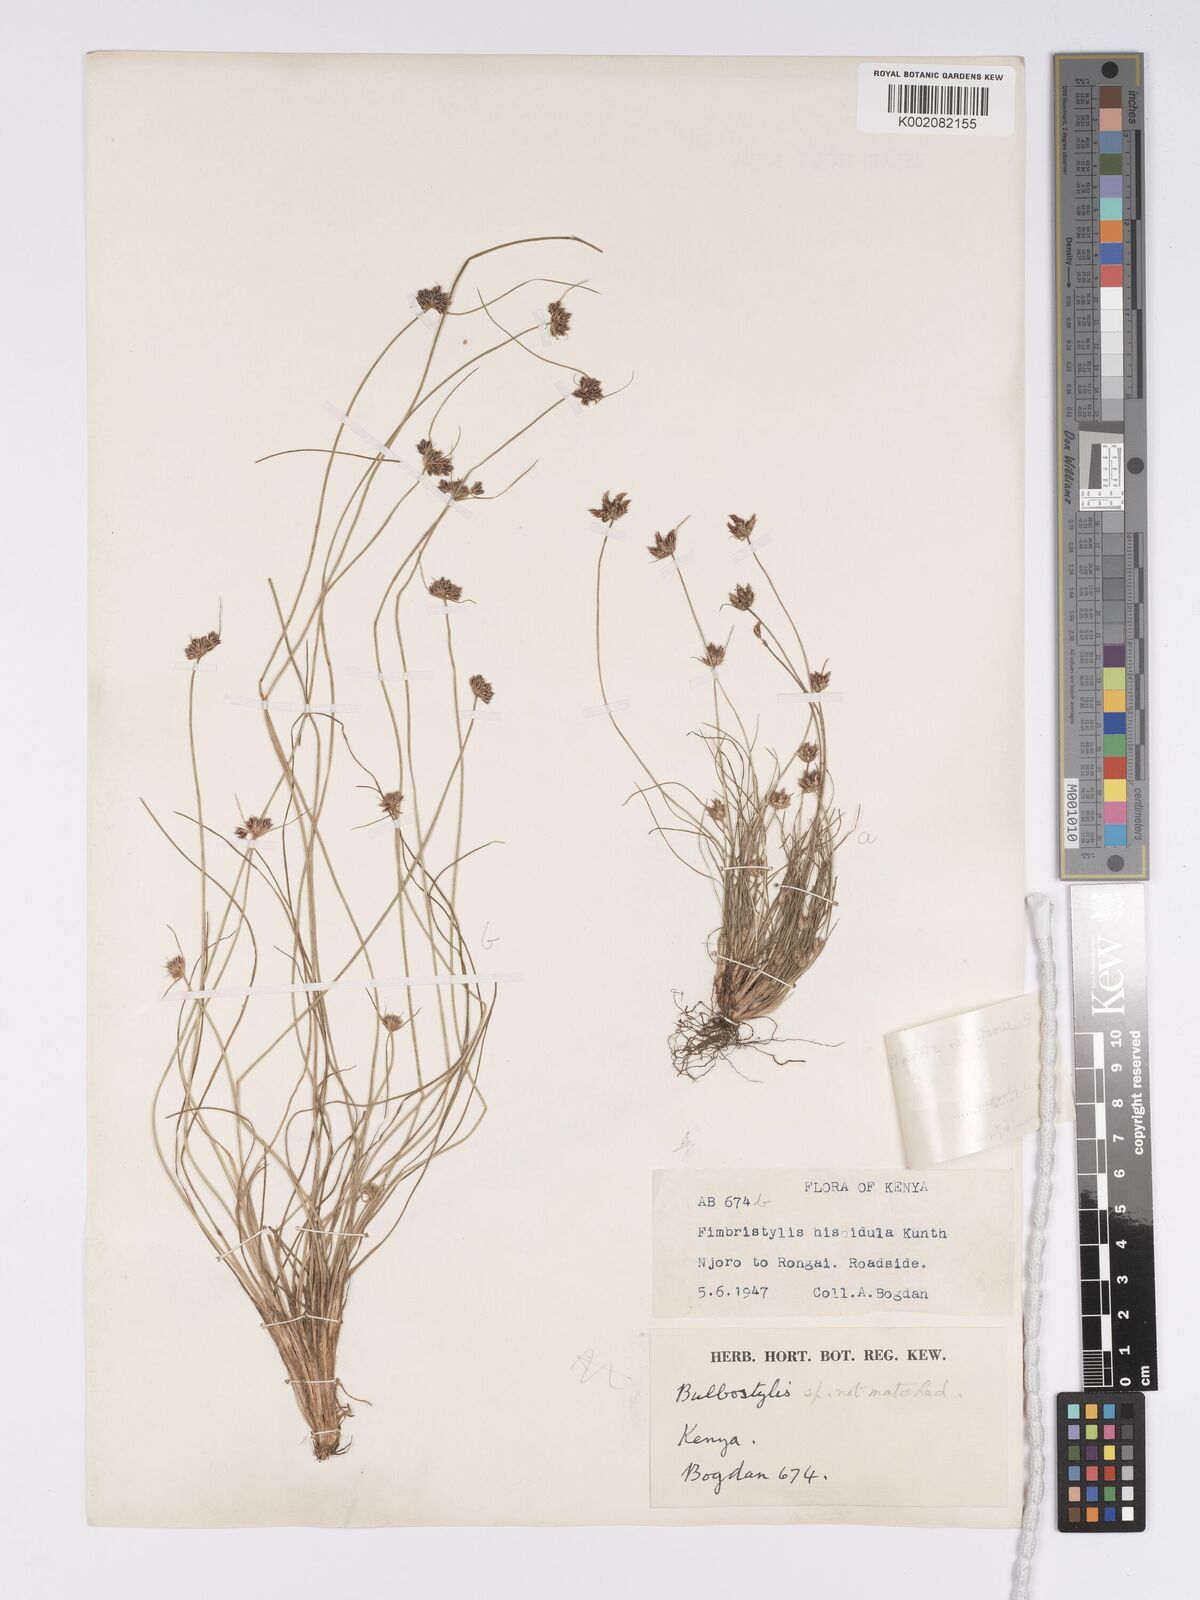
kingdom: Plantae
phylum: Tracheophyta
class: Liliopsida
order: Poales
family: Cyperaceae
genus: Bulbostylis
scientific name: Bulbostylis humilis
